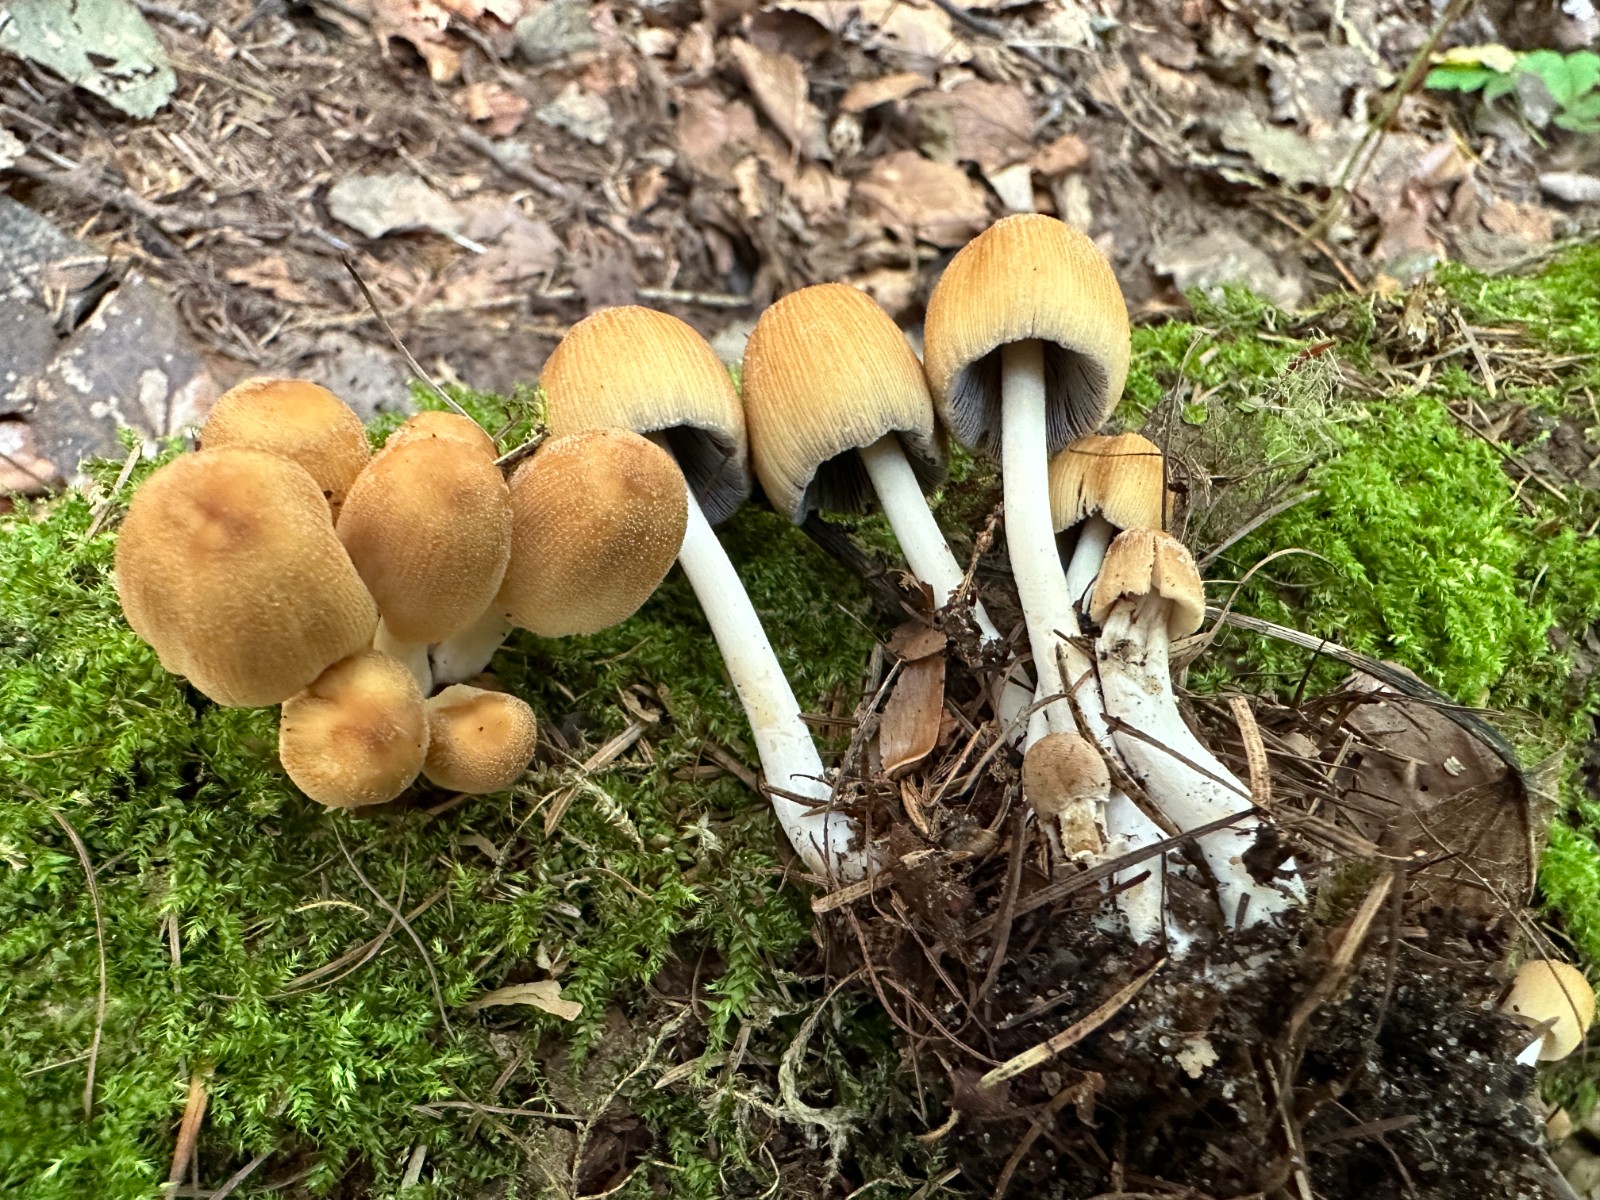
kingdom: Fungi
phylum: Basidiomycota
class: Agaricomycetes
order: Agaricales
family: Psathyrellaceae
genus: Coprinellus
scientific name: Coprinellus
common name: blækhat
